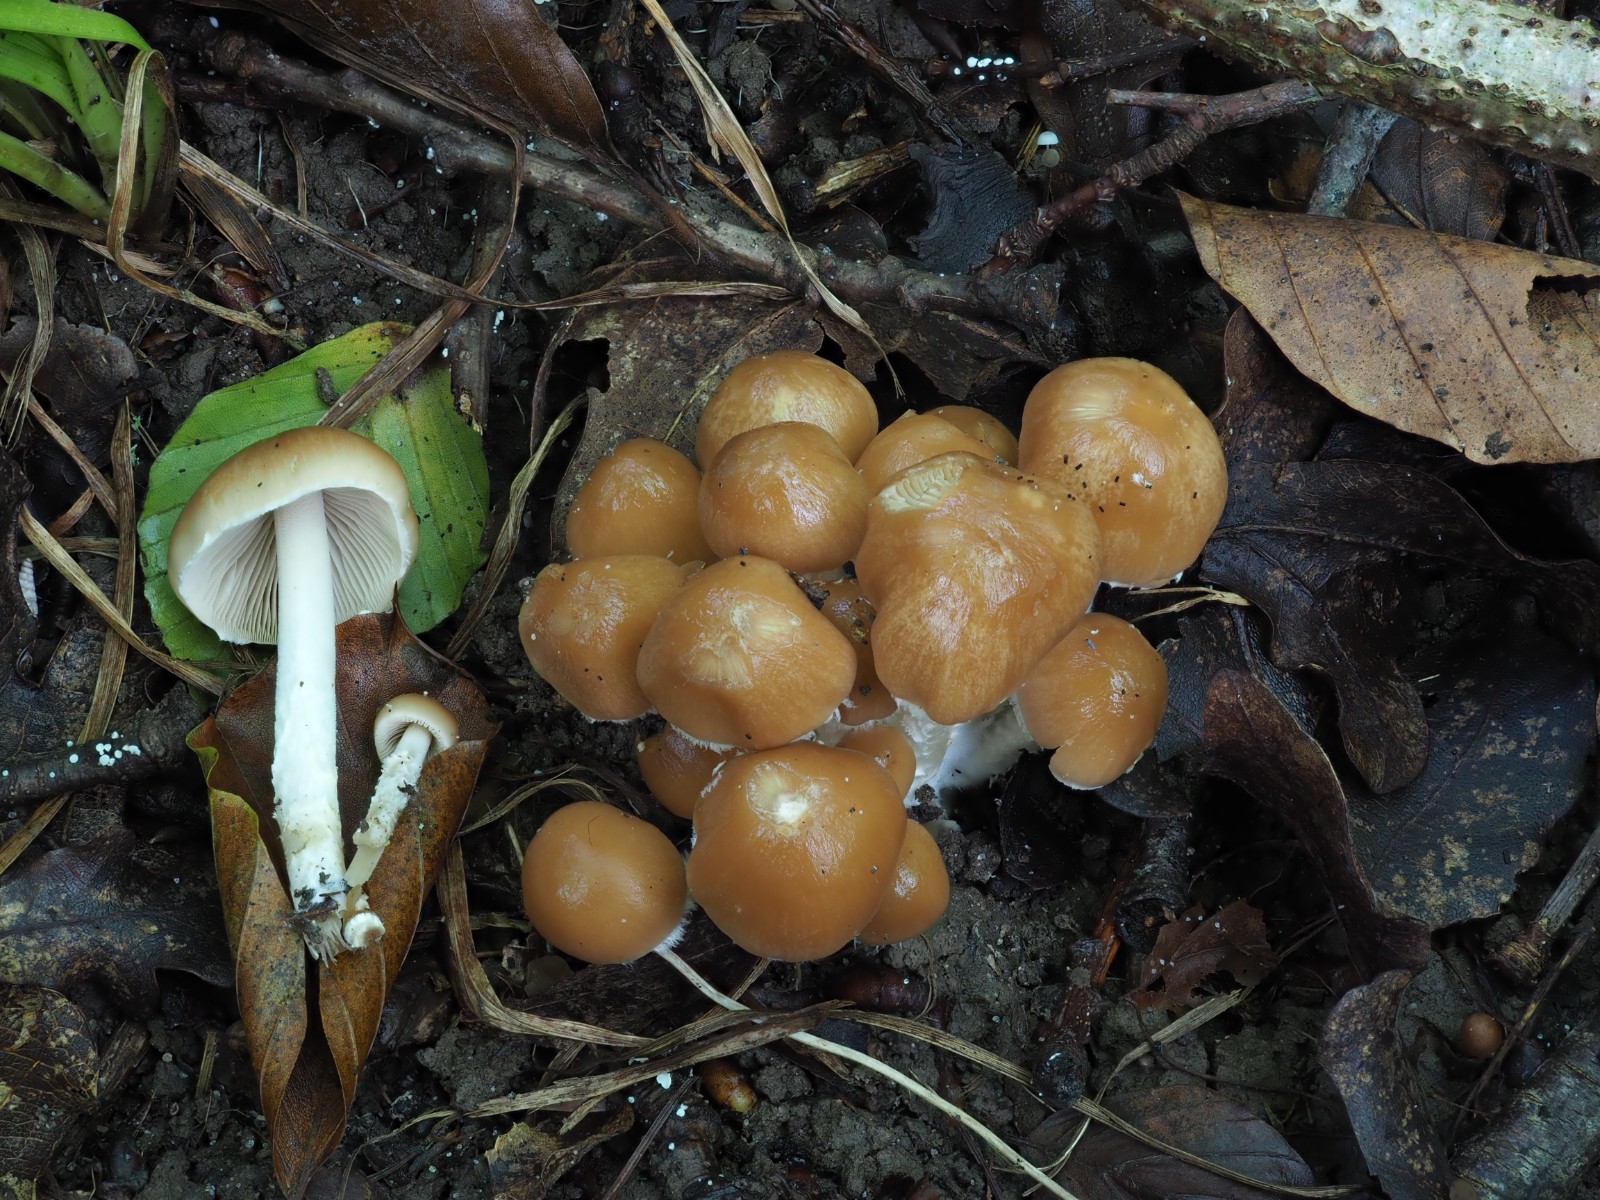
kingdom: Fungi
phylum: Basidiomycota
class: Agaricomycetes
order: Agaricales
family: Psathyrellaceae
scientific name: Psathyrellaceae
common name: mørkhatfamilien
